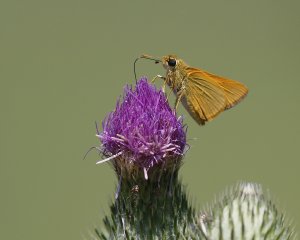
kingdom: Animalia
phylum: Arthropoda
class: Insecta
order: Lepidoptera
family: Hesperiidae
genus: Ancyloxypha
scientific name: Ancyloxypha numitor
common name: Least Skipper
